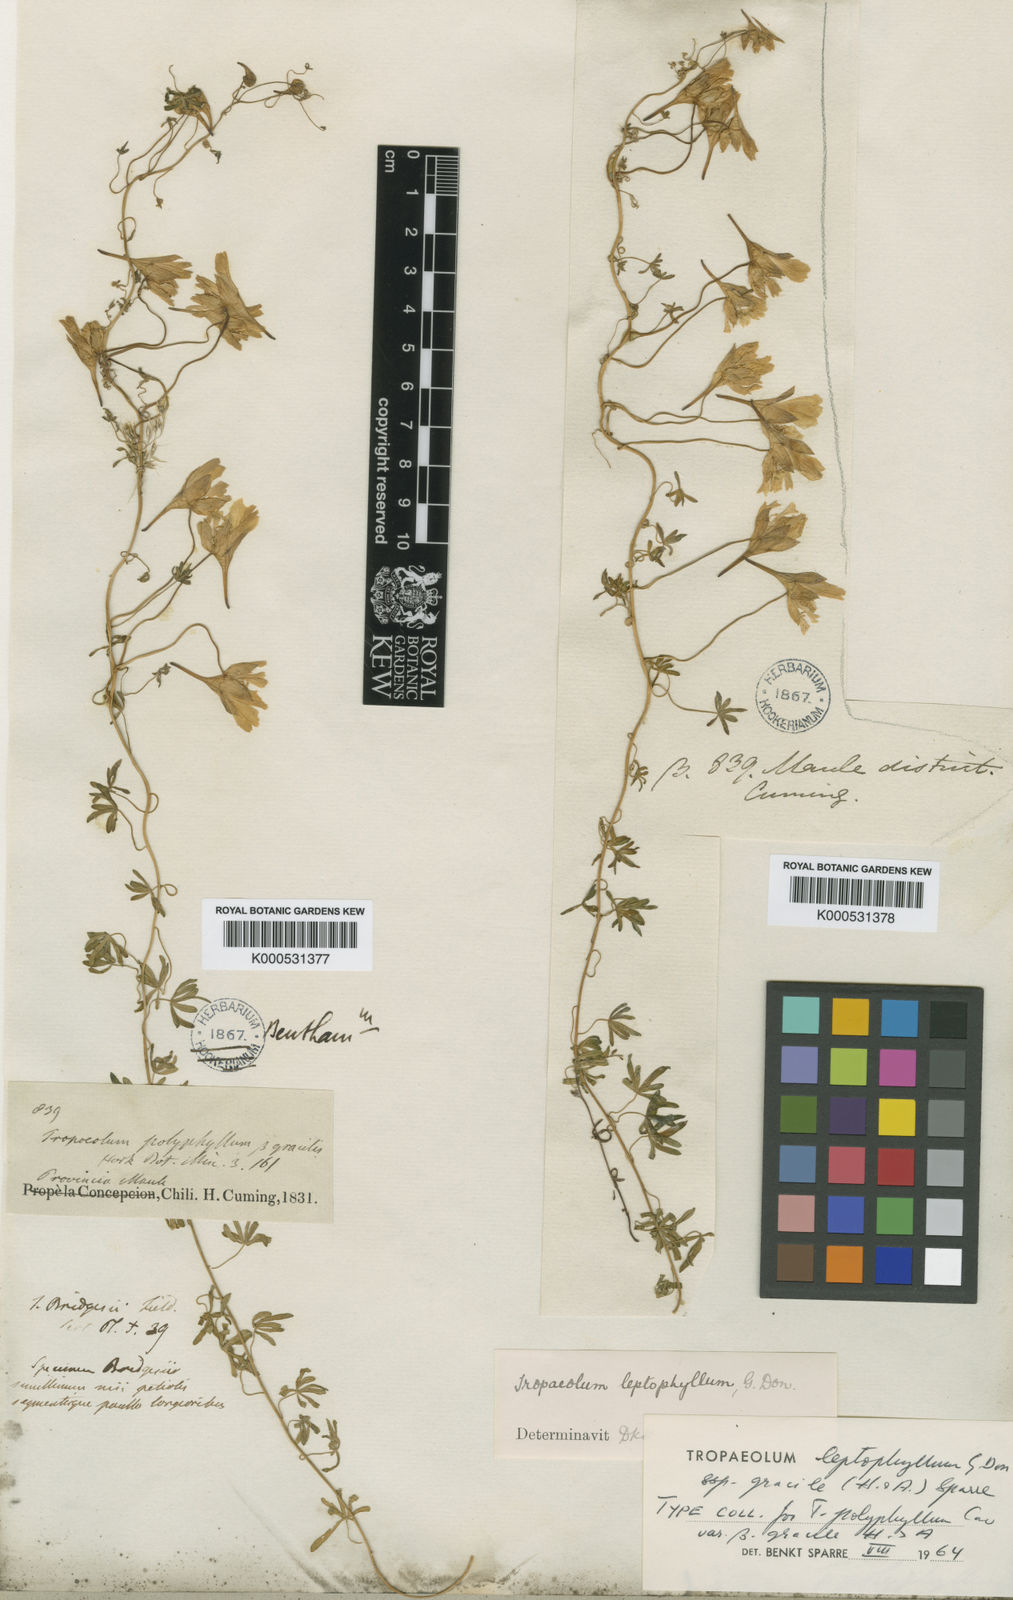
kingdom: Plantae
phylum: Tracheophyta
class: Magnoliopsida
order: Brassicales
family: Tropaeolaceae
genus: Tropaeolum
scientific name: Tropaeolum leptophyllum
